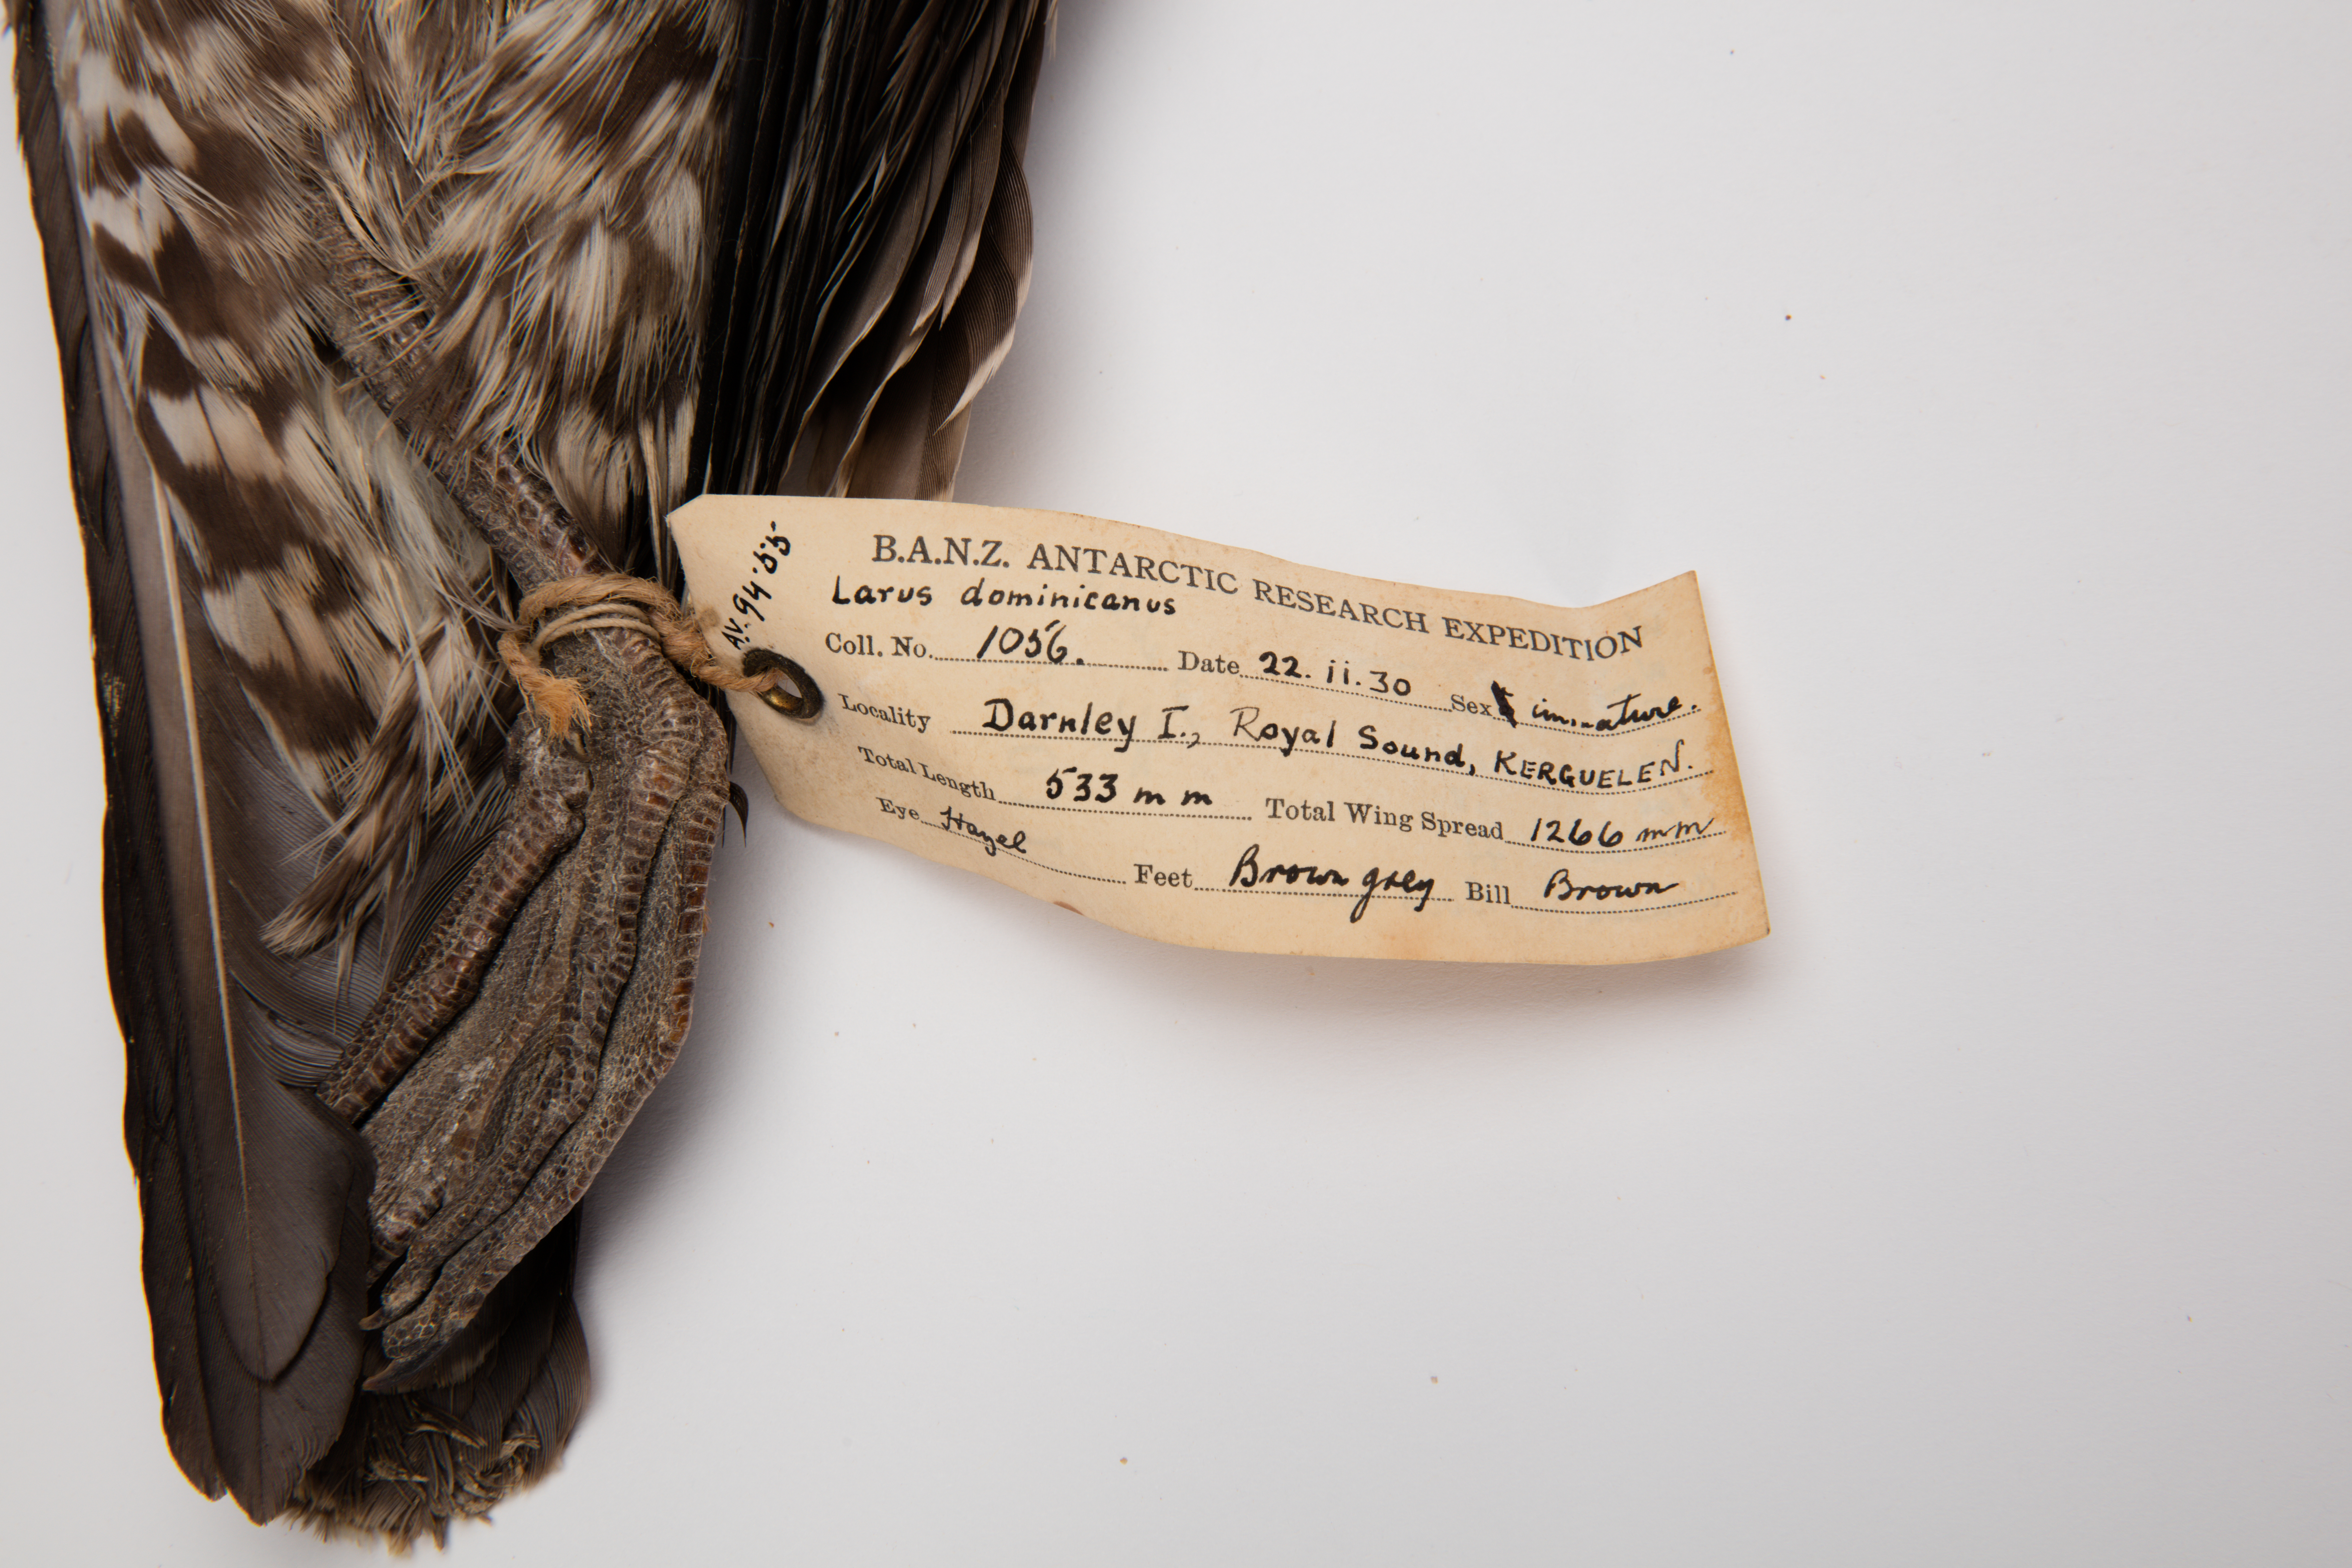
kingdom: Animalia
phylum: Chordata
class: Aves
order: Charadriiformes
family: Laridae
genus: Larus
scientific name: Larus dominicanus
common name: Kelp gull
